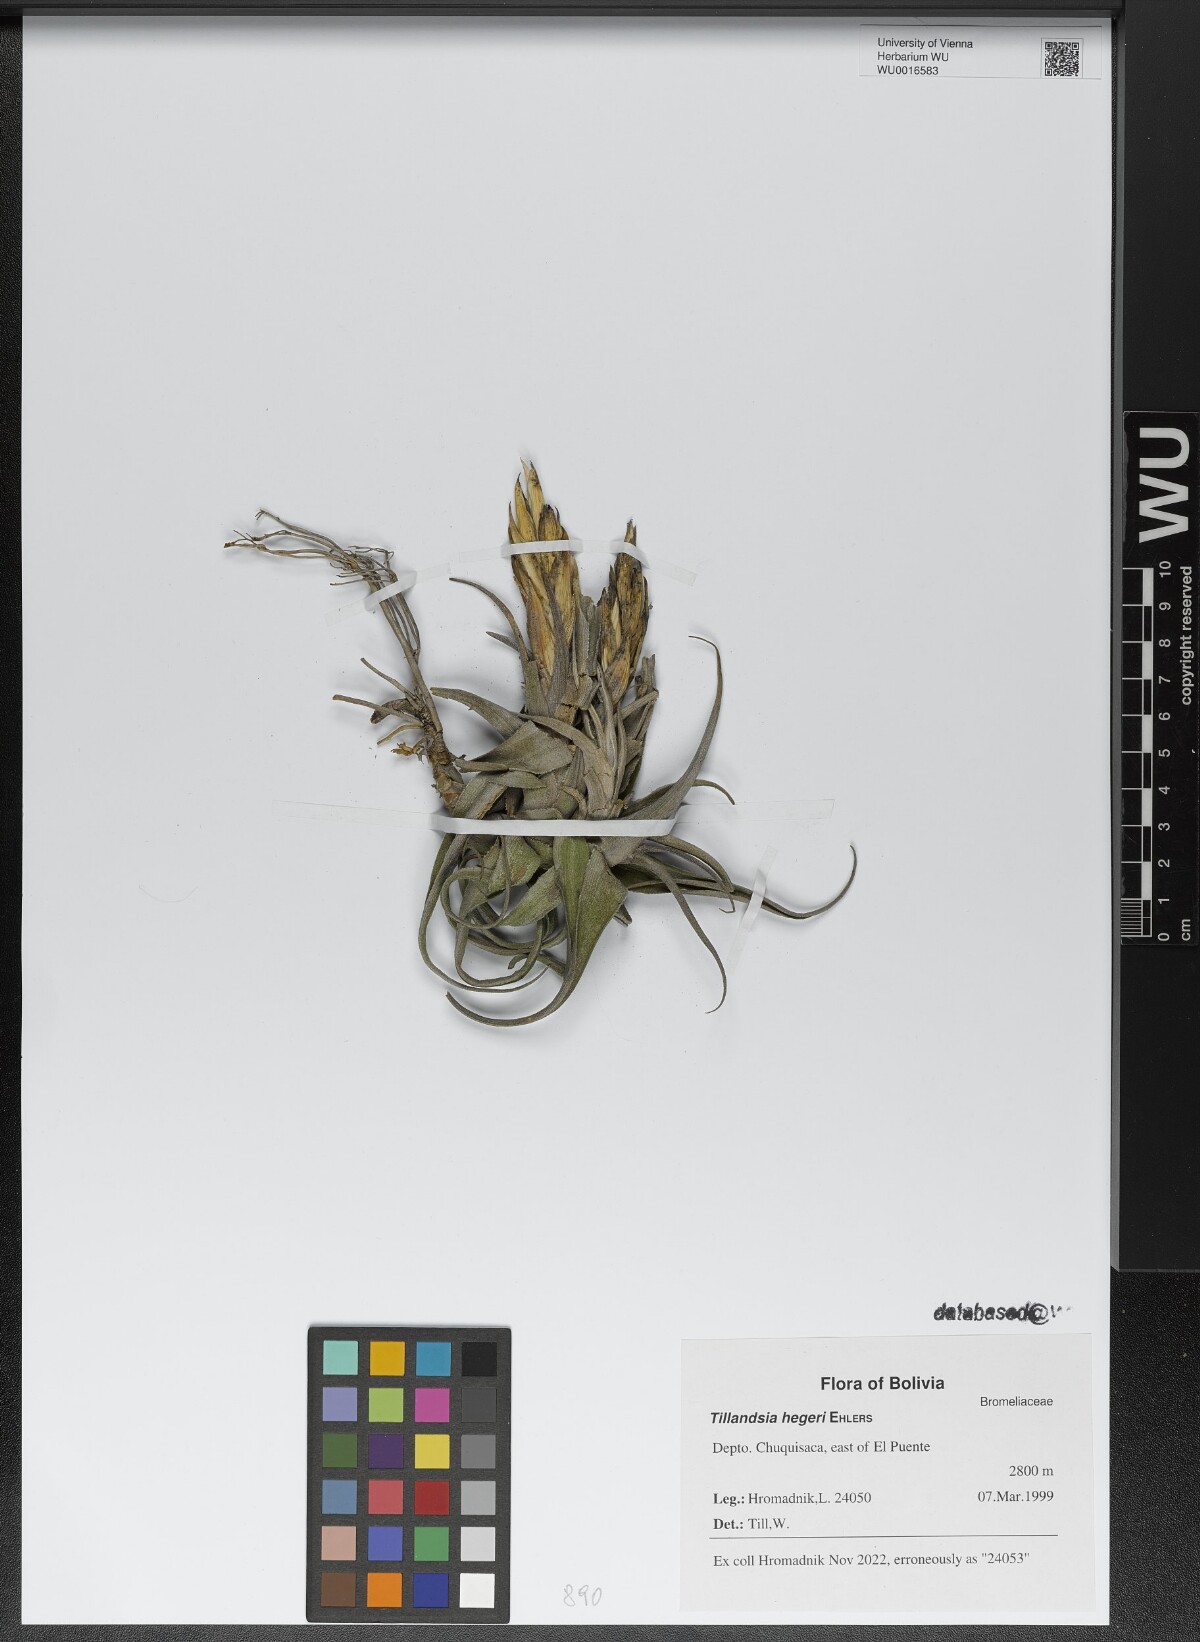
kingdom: Plantae
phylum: Tracheophyta
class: Liliopsida
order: Poales
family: Bromeliaceae
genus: Tillandsia
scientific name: Tillandsia hegeri
